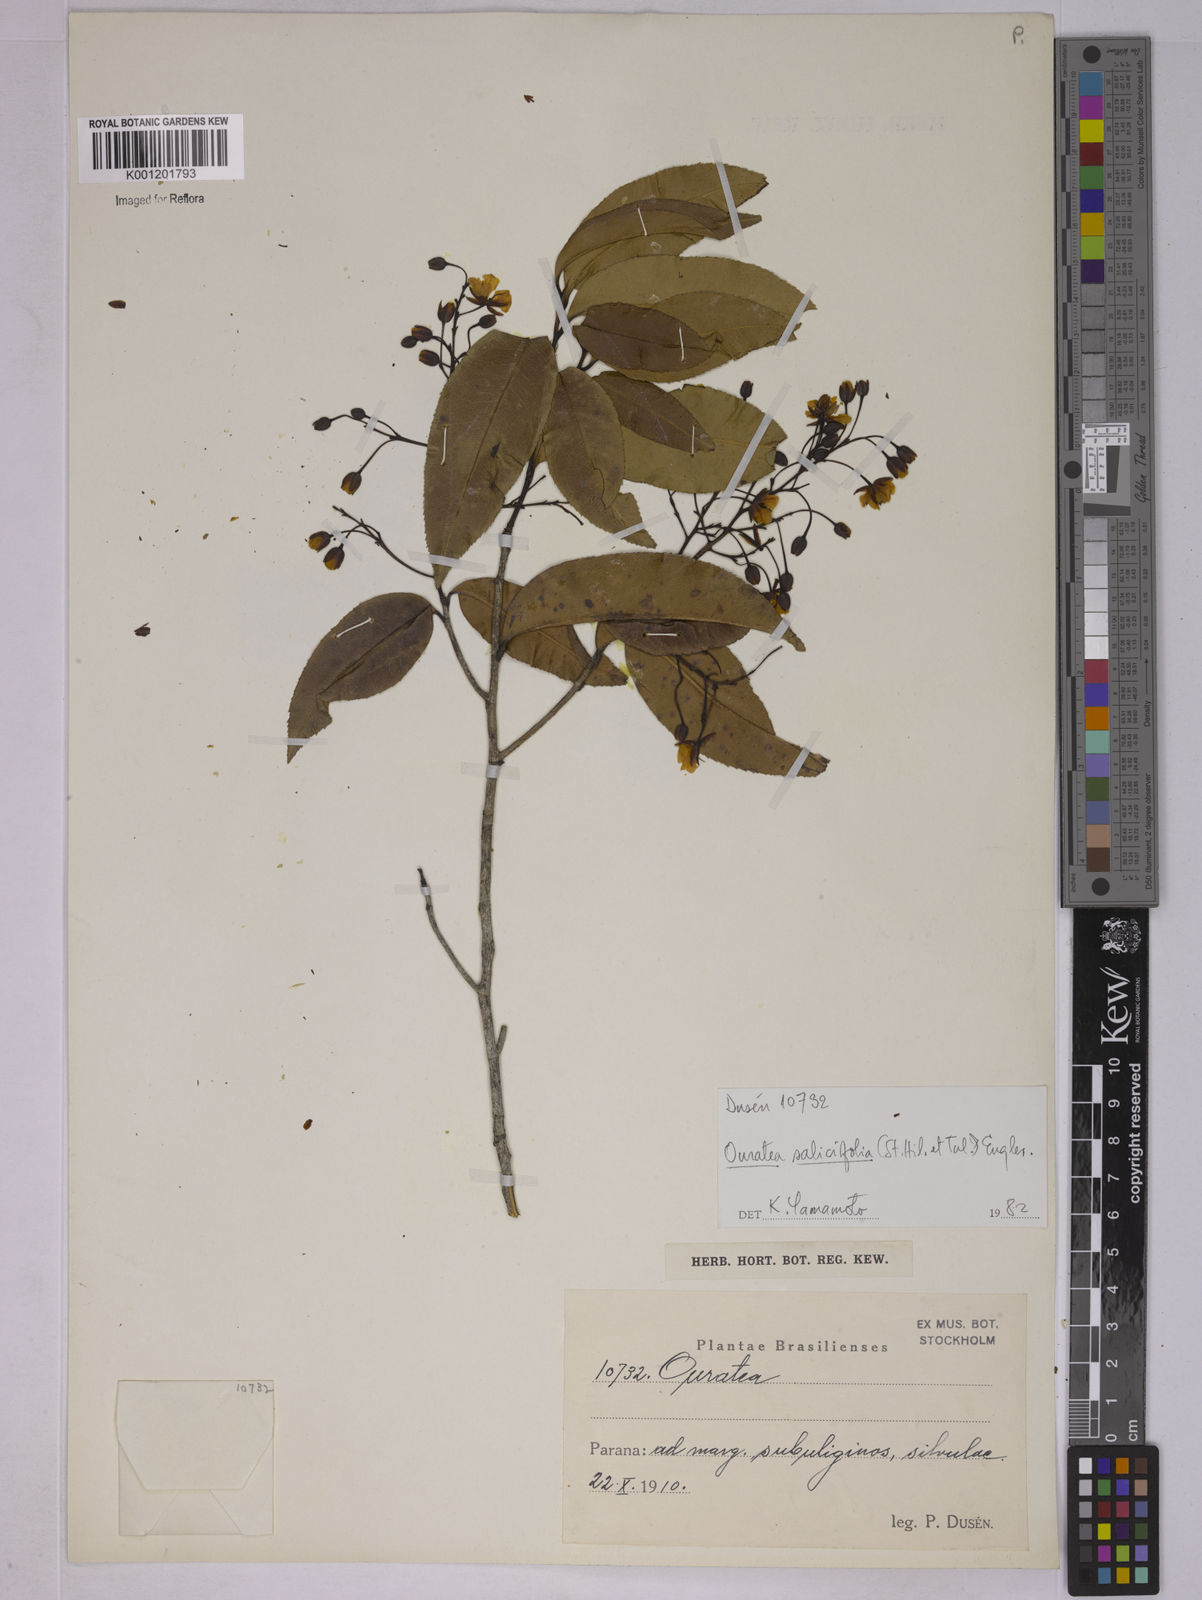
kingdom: Plantae
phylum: Tracheophyta
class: Magnoliopsida
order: Malpighiales
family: Ochnaceae
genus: Ouratea
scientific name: Ouratea salicifolia
